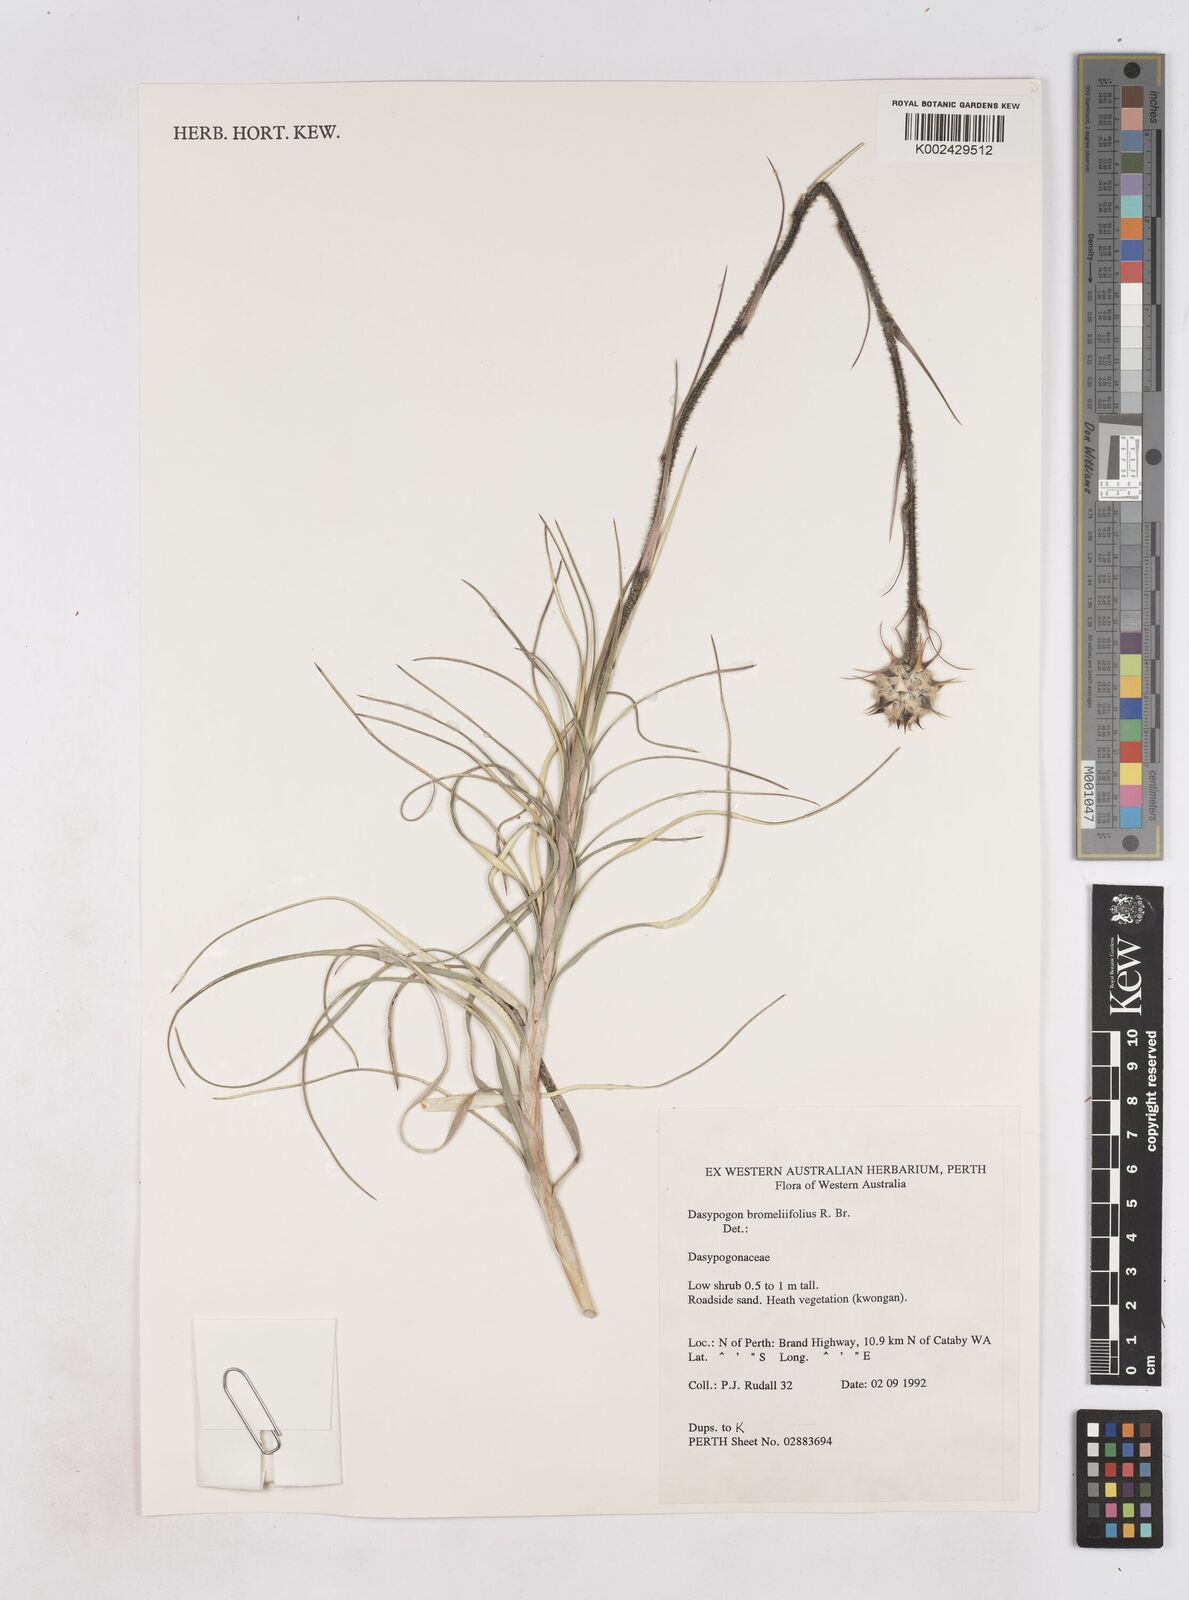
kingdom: Plantae
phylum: Tracheophyta
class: Liliopsida
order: Arecales
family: Dasypogonaceae
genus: Dasypogon
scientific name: Dasypogon bromeliifolius
